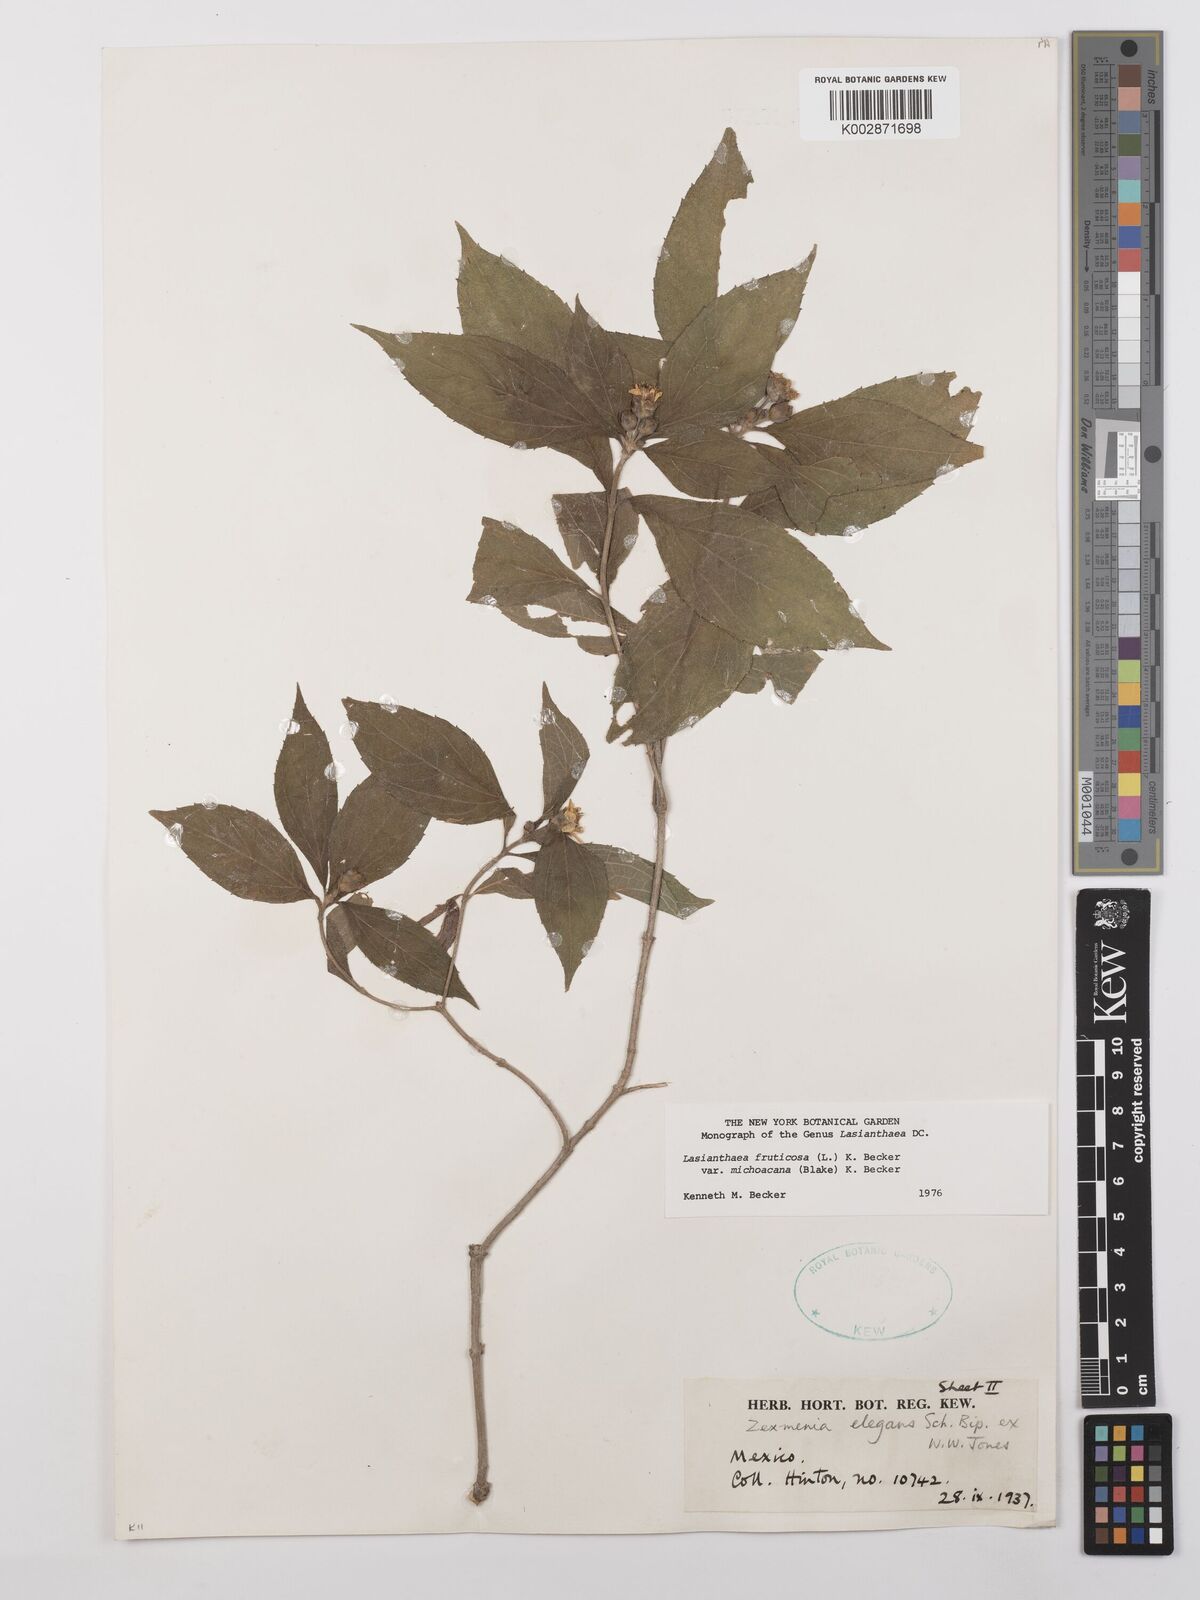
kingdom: Plantae
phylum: Tracheophyta
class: Magnoliopsida
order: Asterales
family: Asteraceae
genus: Lasianthaea
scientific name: Lasianthaea fruticosa
